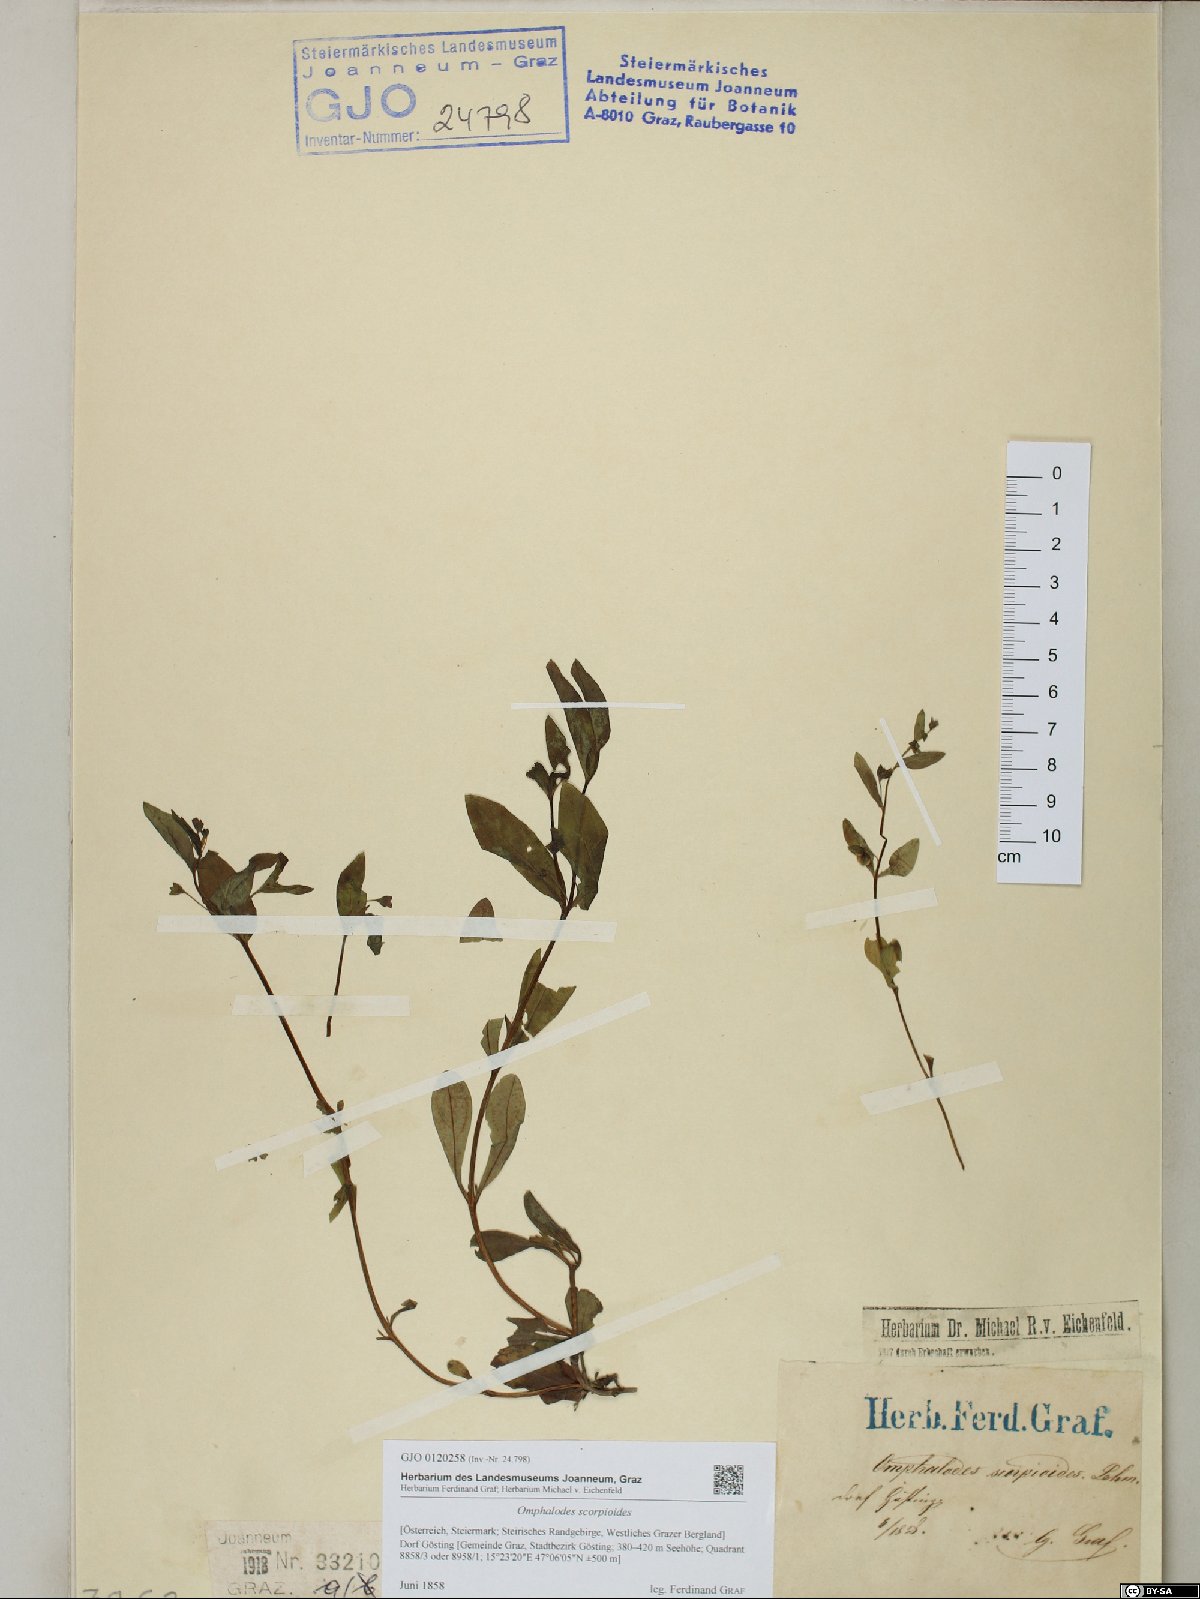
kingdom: Plantae
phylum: Tracheophyta
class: Magnoliopsida
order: Boraginales
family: Boraginaceae
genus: Memoremea
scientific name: Memoremea scorpioides
